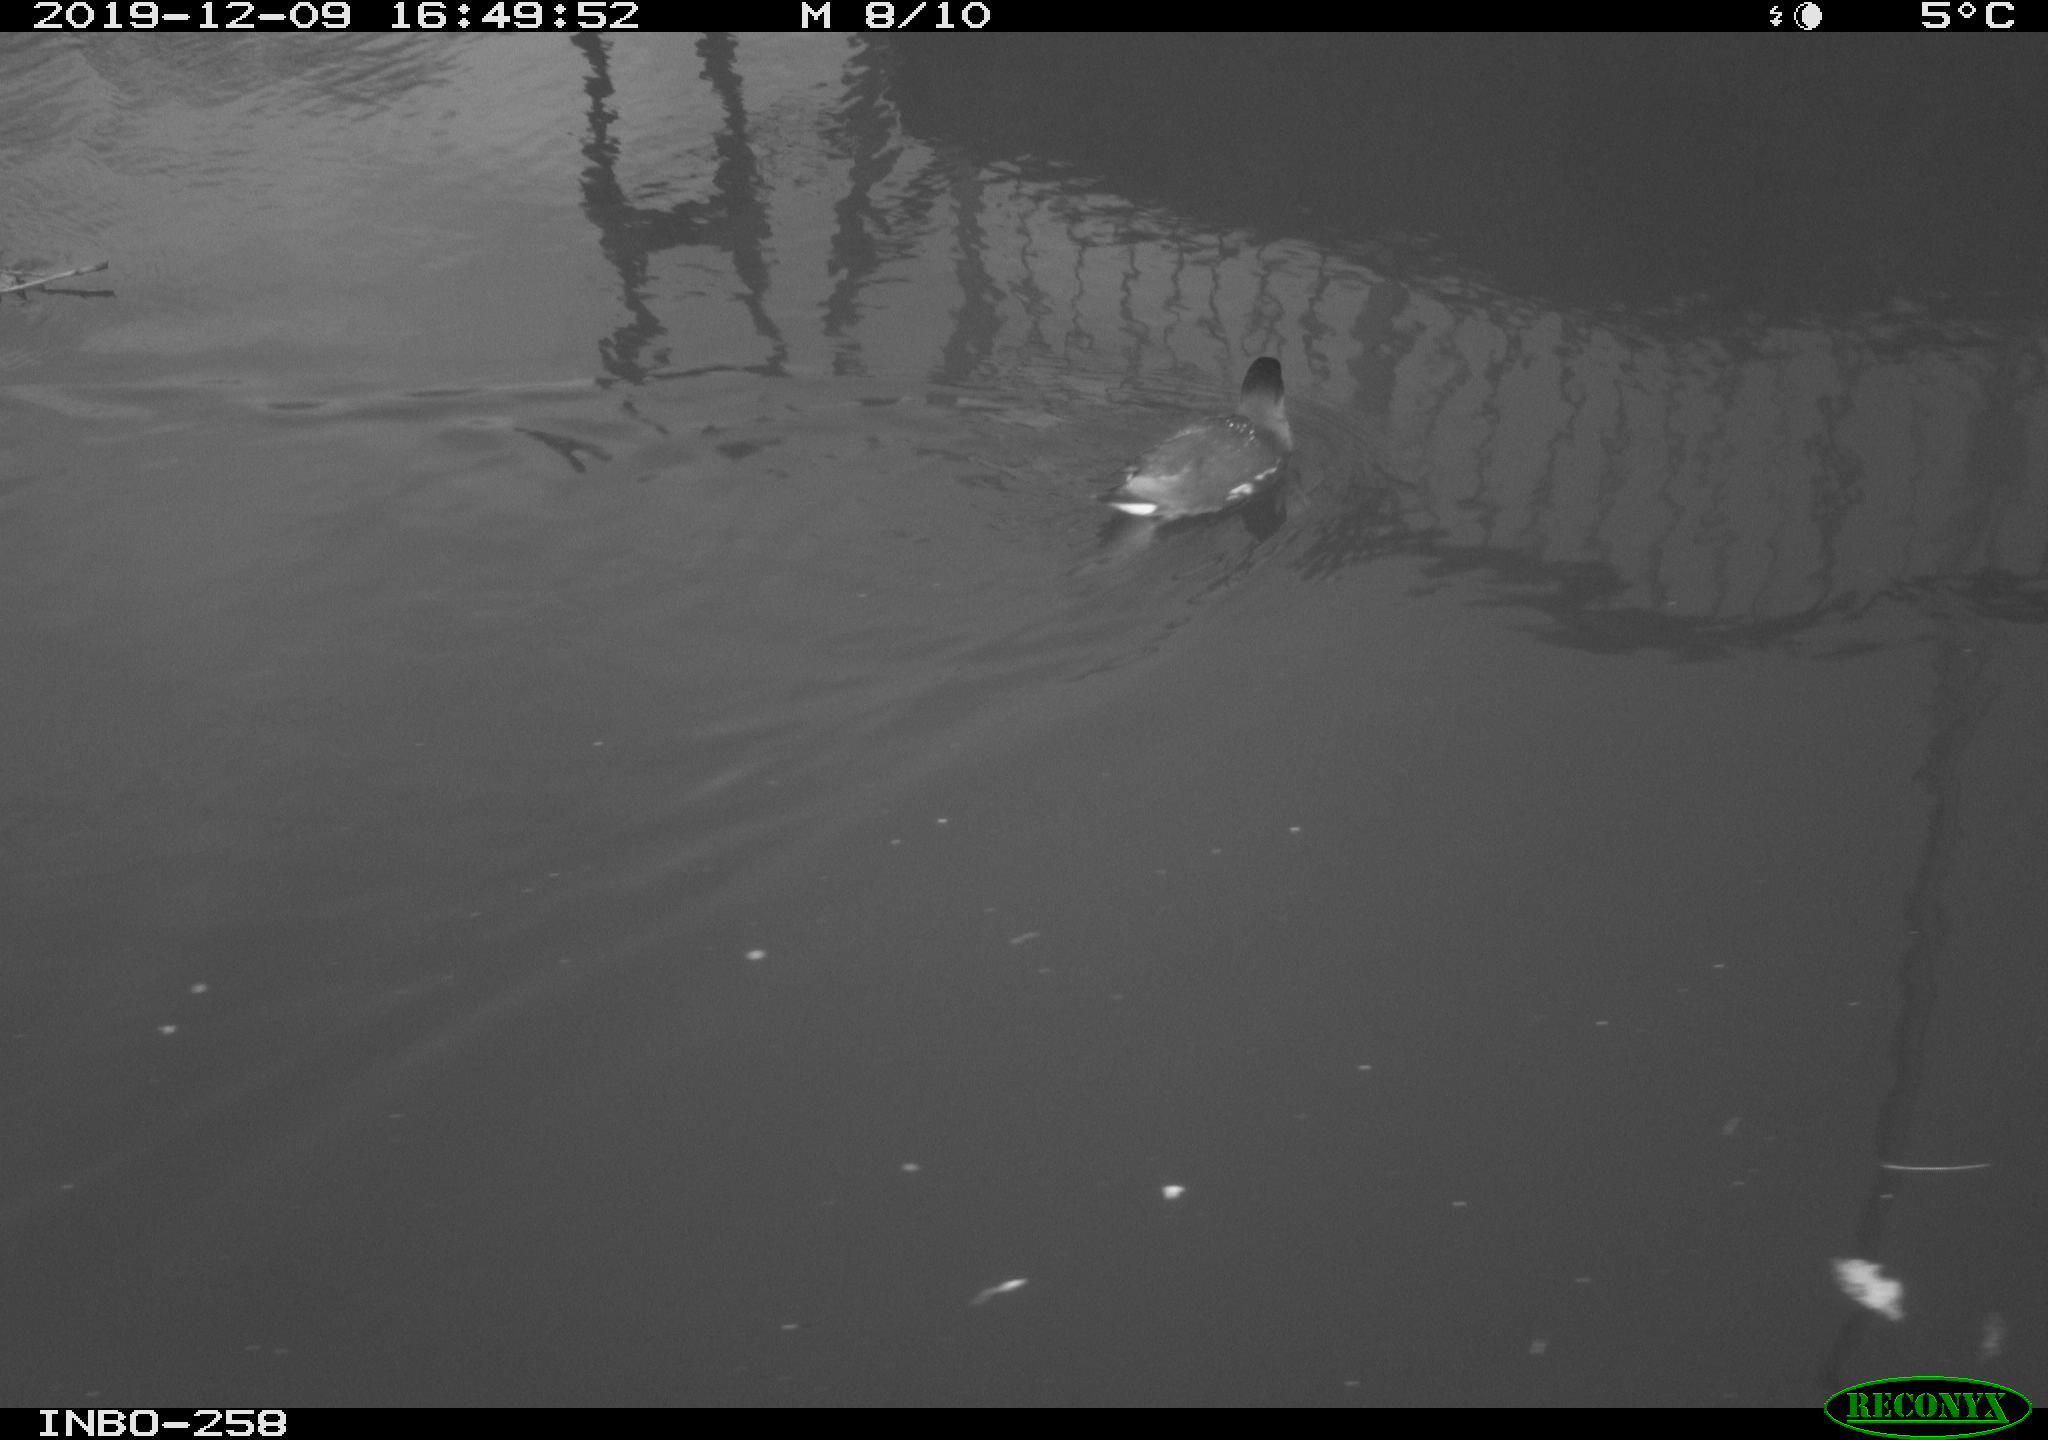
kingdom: Animalia
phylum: Chordata
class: Aves
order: Gruiformes
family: Rallidae
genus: Gallinula
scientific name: Gallinula chloropus
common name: Common moorhen
